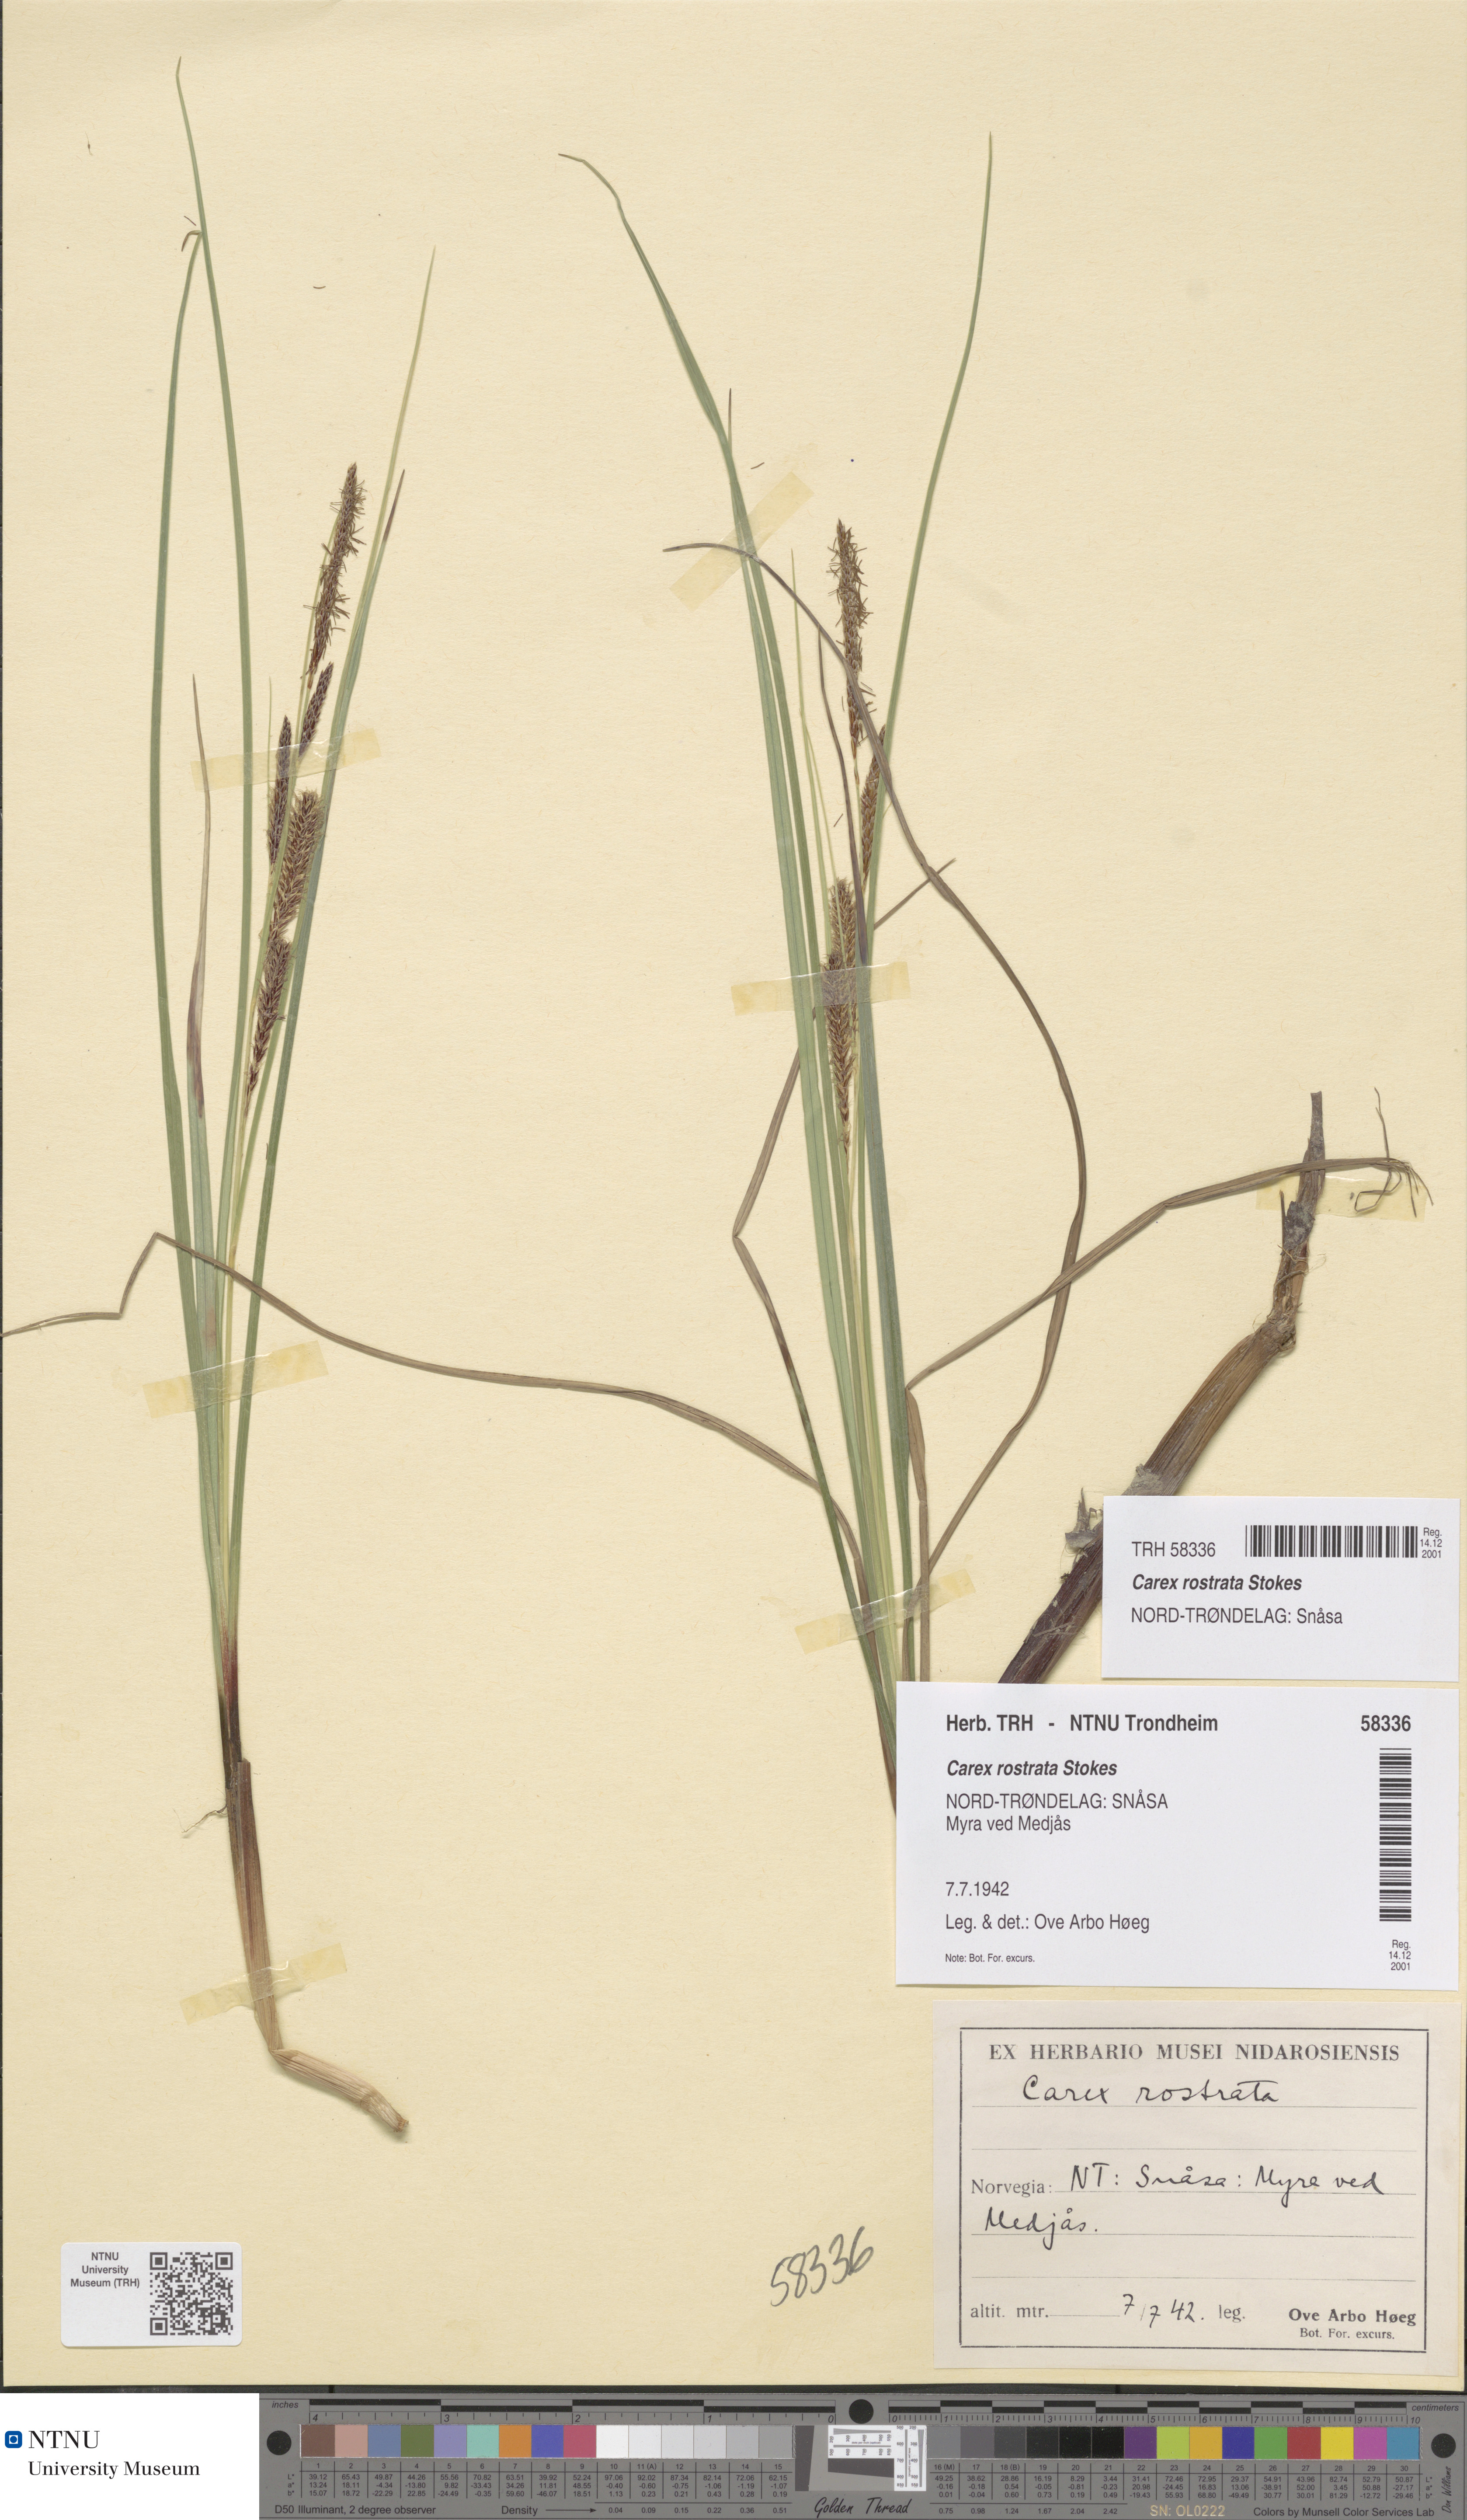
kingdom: Plantae
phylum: Tracheophyta
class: Liliopsida
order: Poales
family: Cyperaceae
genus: Carex
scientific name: Carex rostrata
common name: Bottle sedge
